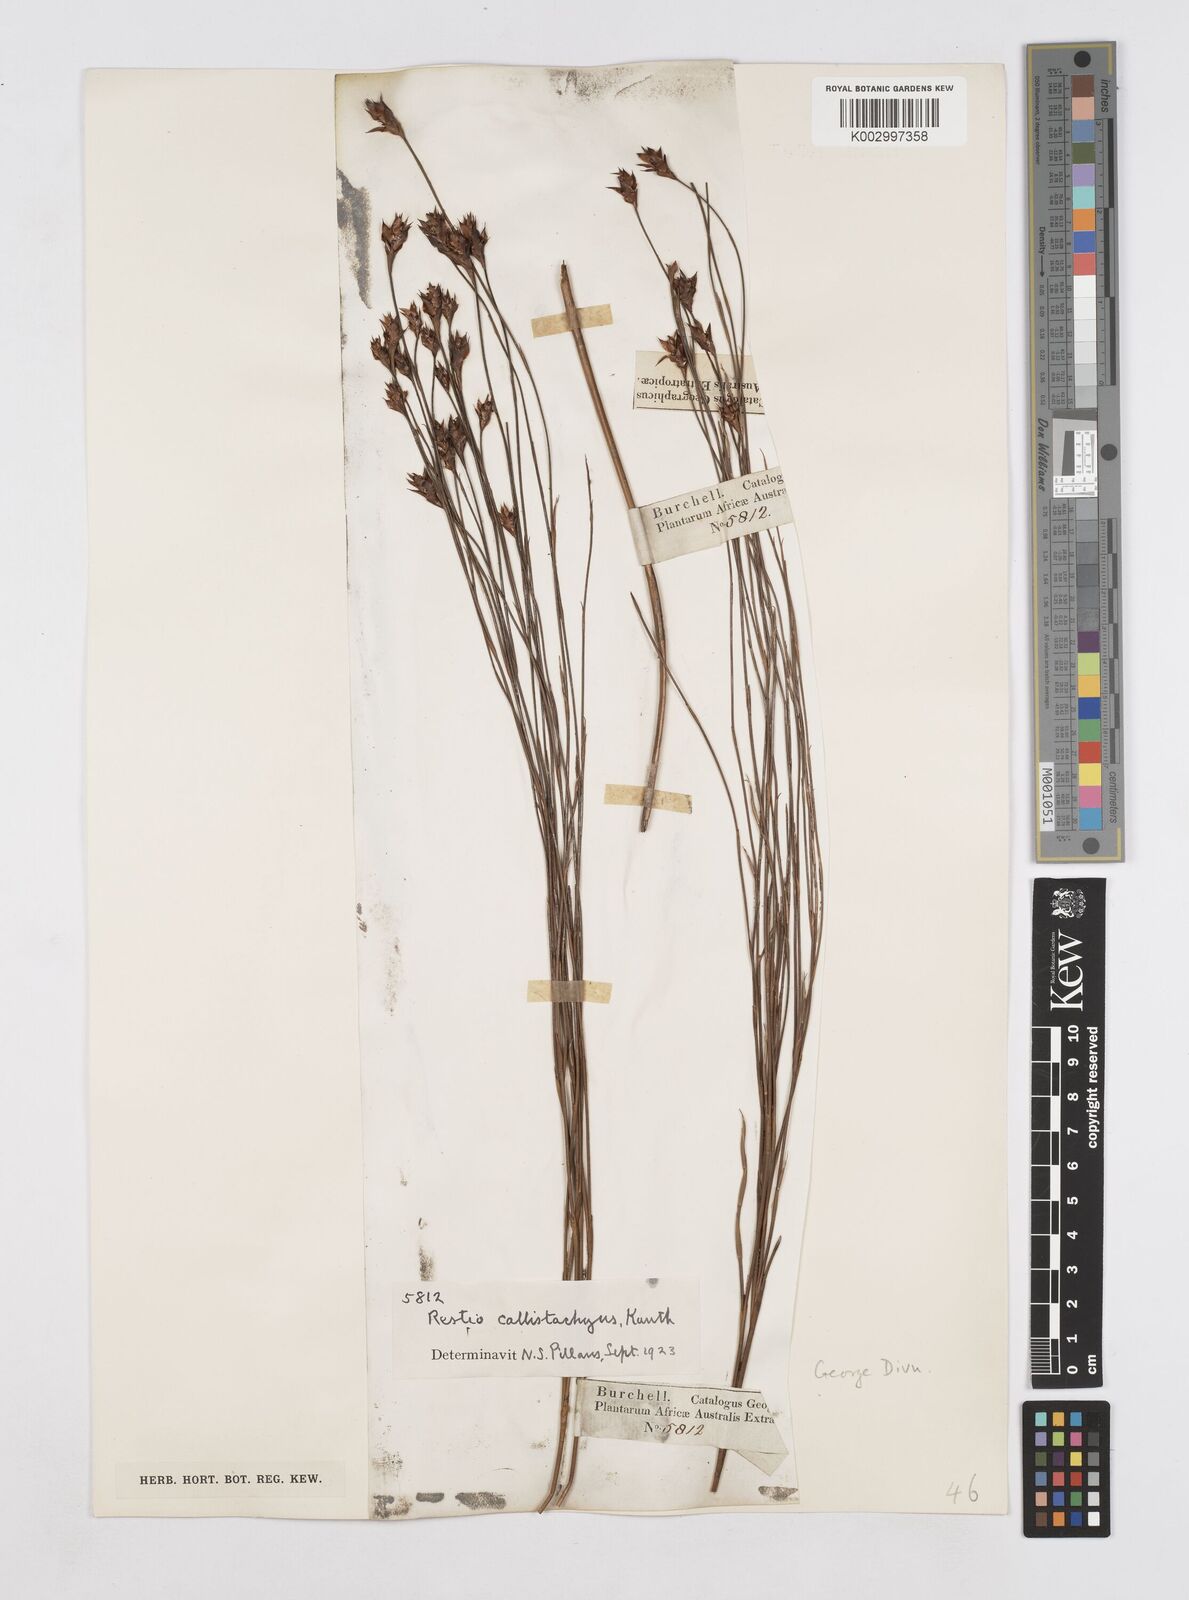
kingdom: Plantae
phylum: Tracheophyta
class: Liliopsida
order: Poales
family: Restionaceae
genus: Platycaulos
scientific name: Platycaulos callistachyus
